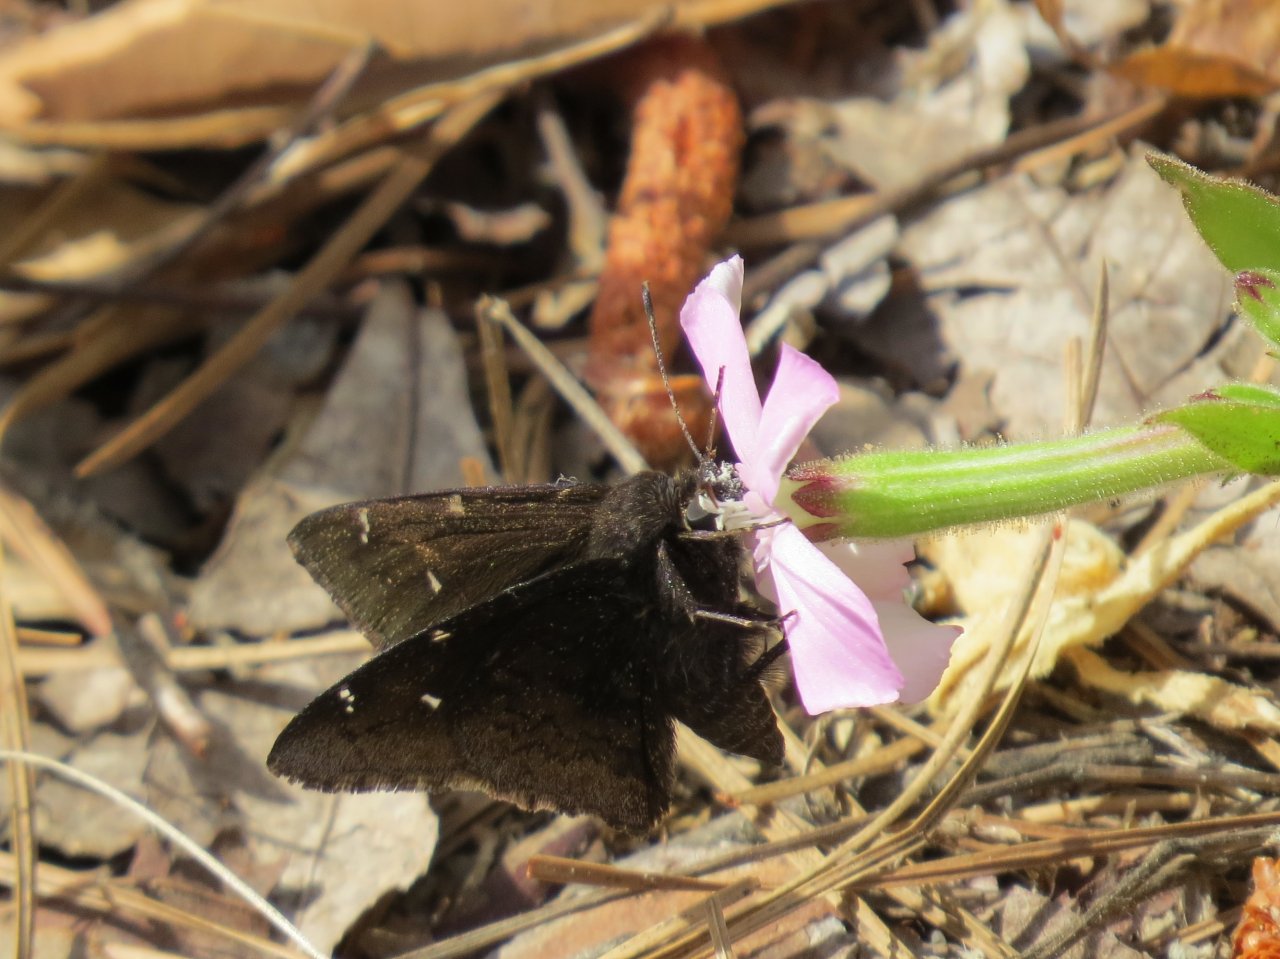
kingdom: Animalia
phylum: Arthropoda
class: Insecta
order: Lepidoptera
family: Hesperiidae
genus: Autochton
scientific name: Autochton
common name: Northern Cloudywing
